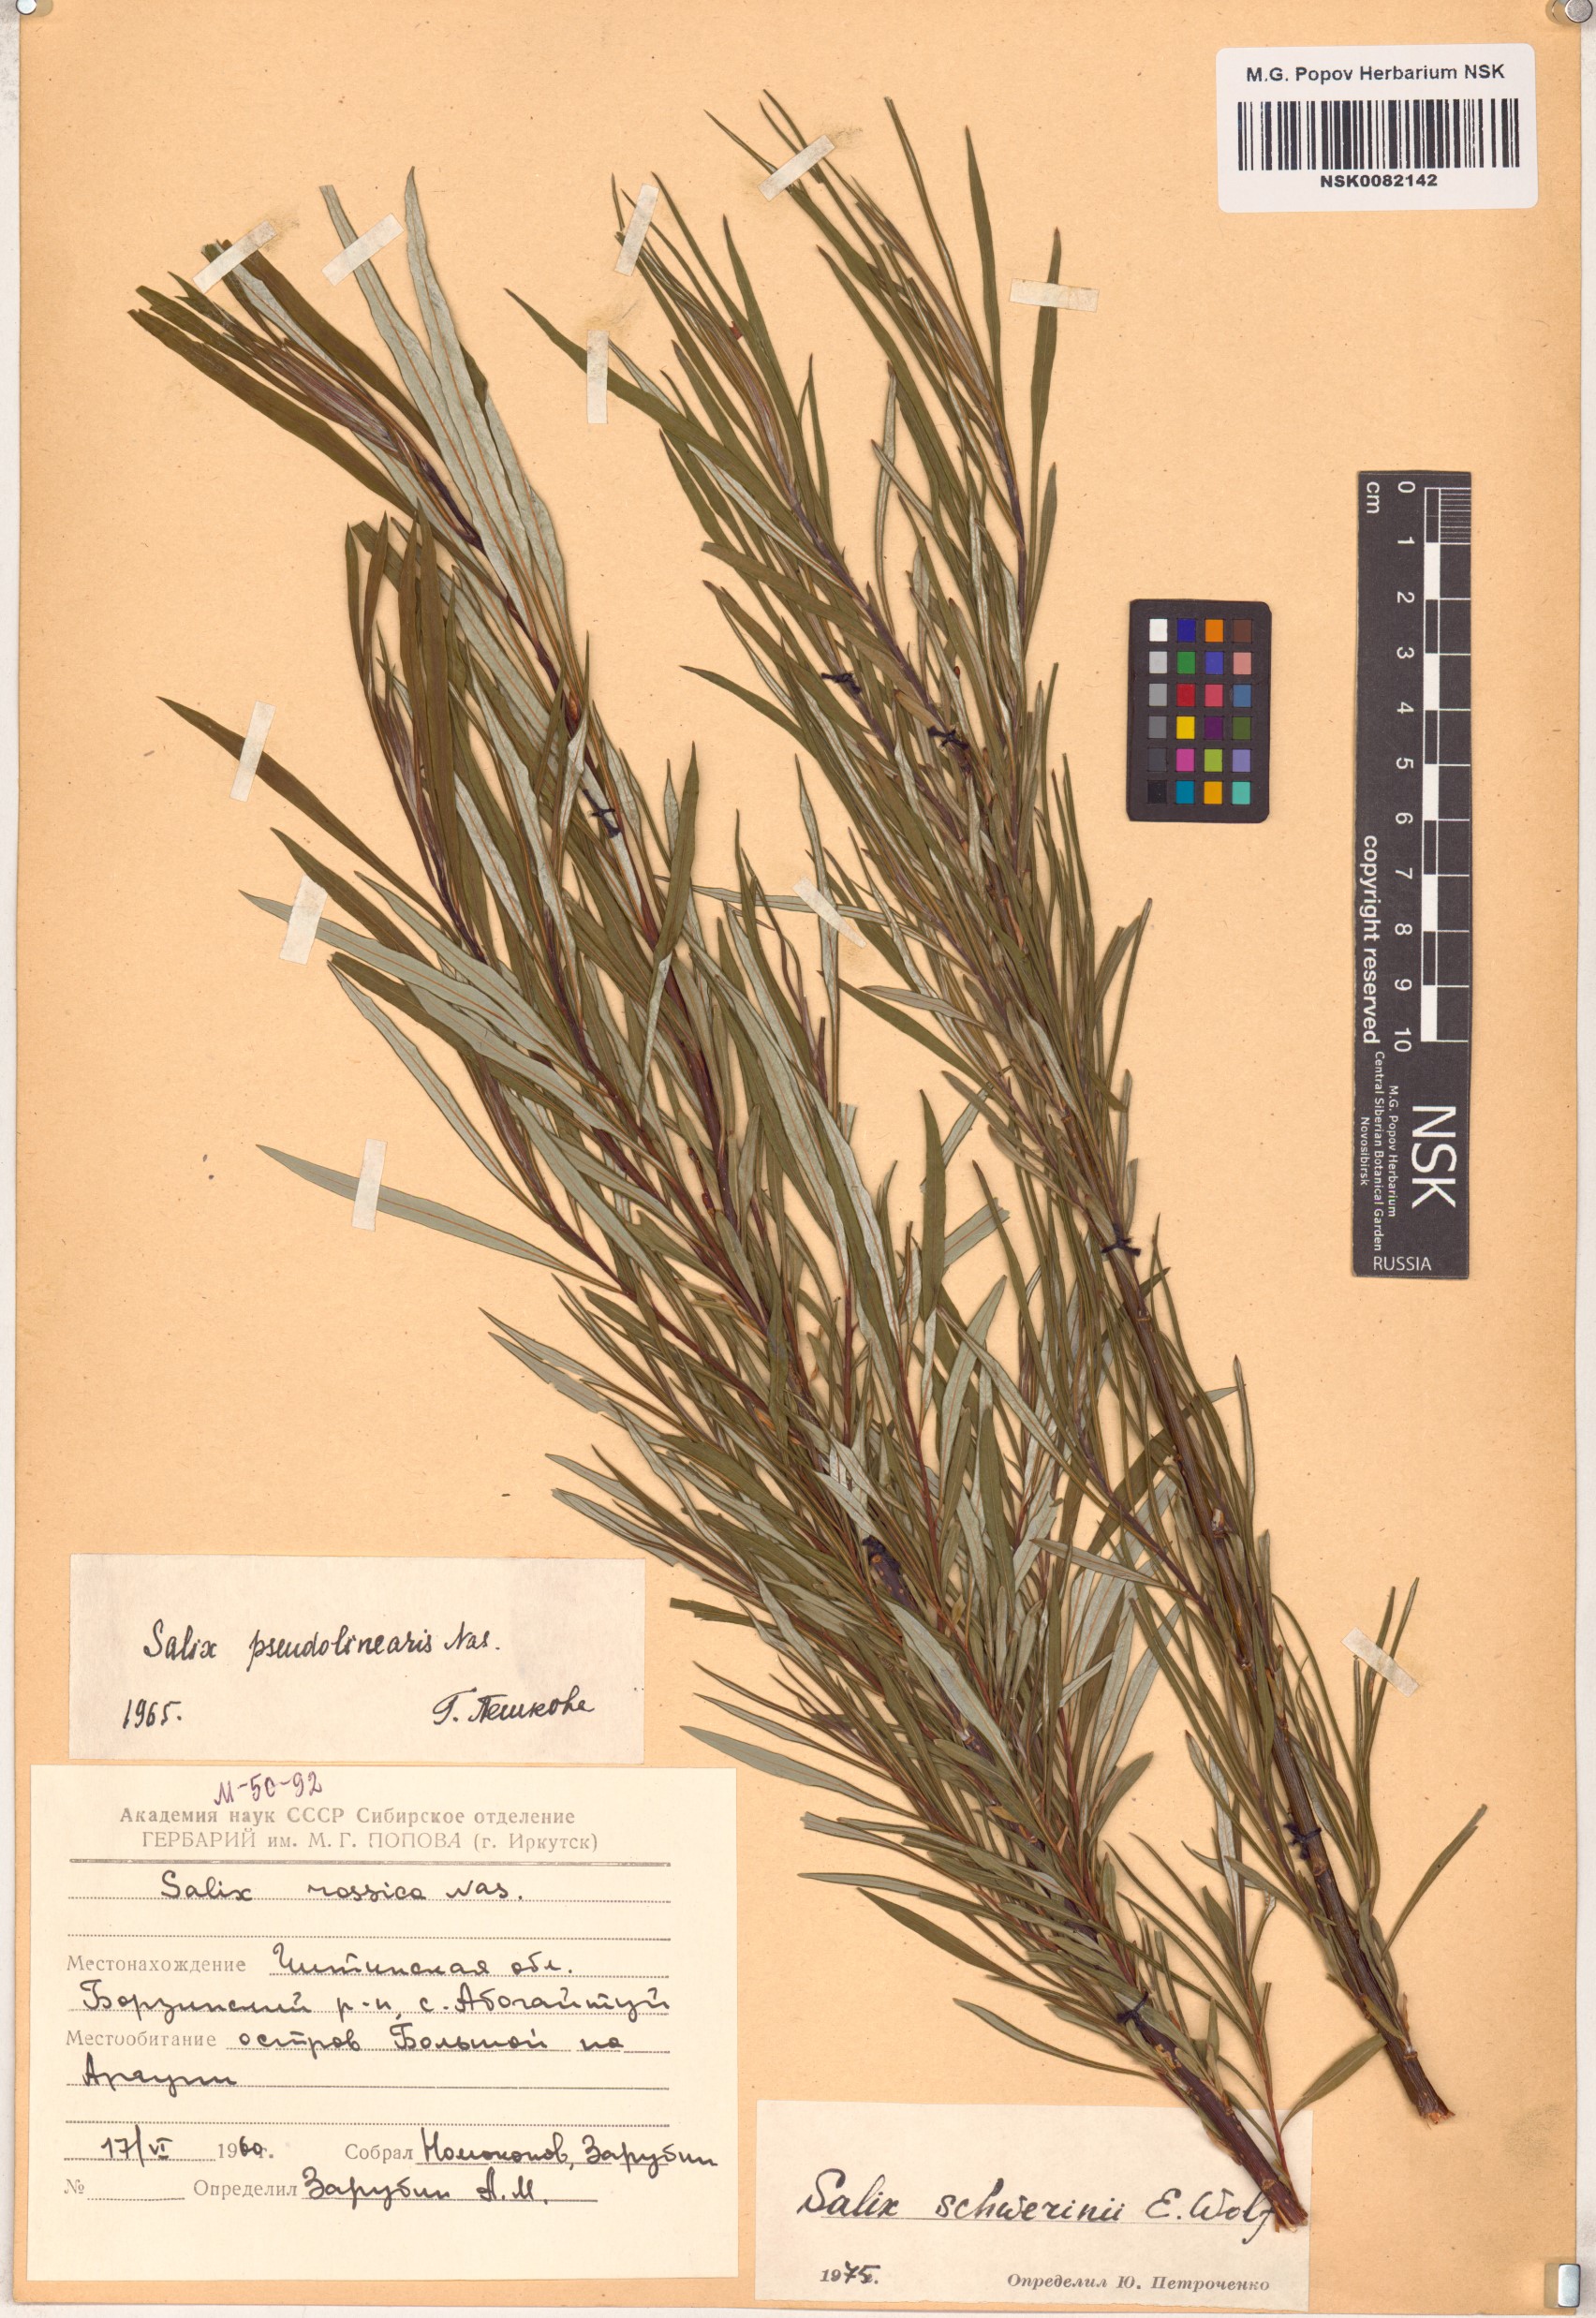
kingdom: Plantae
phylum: Tracheophyta
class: Magnoliopsida
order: Malpighiales
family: Salicaceae
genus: Salix
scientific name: Salix schwerinii
